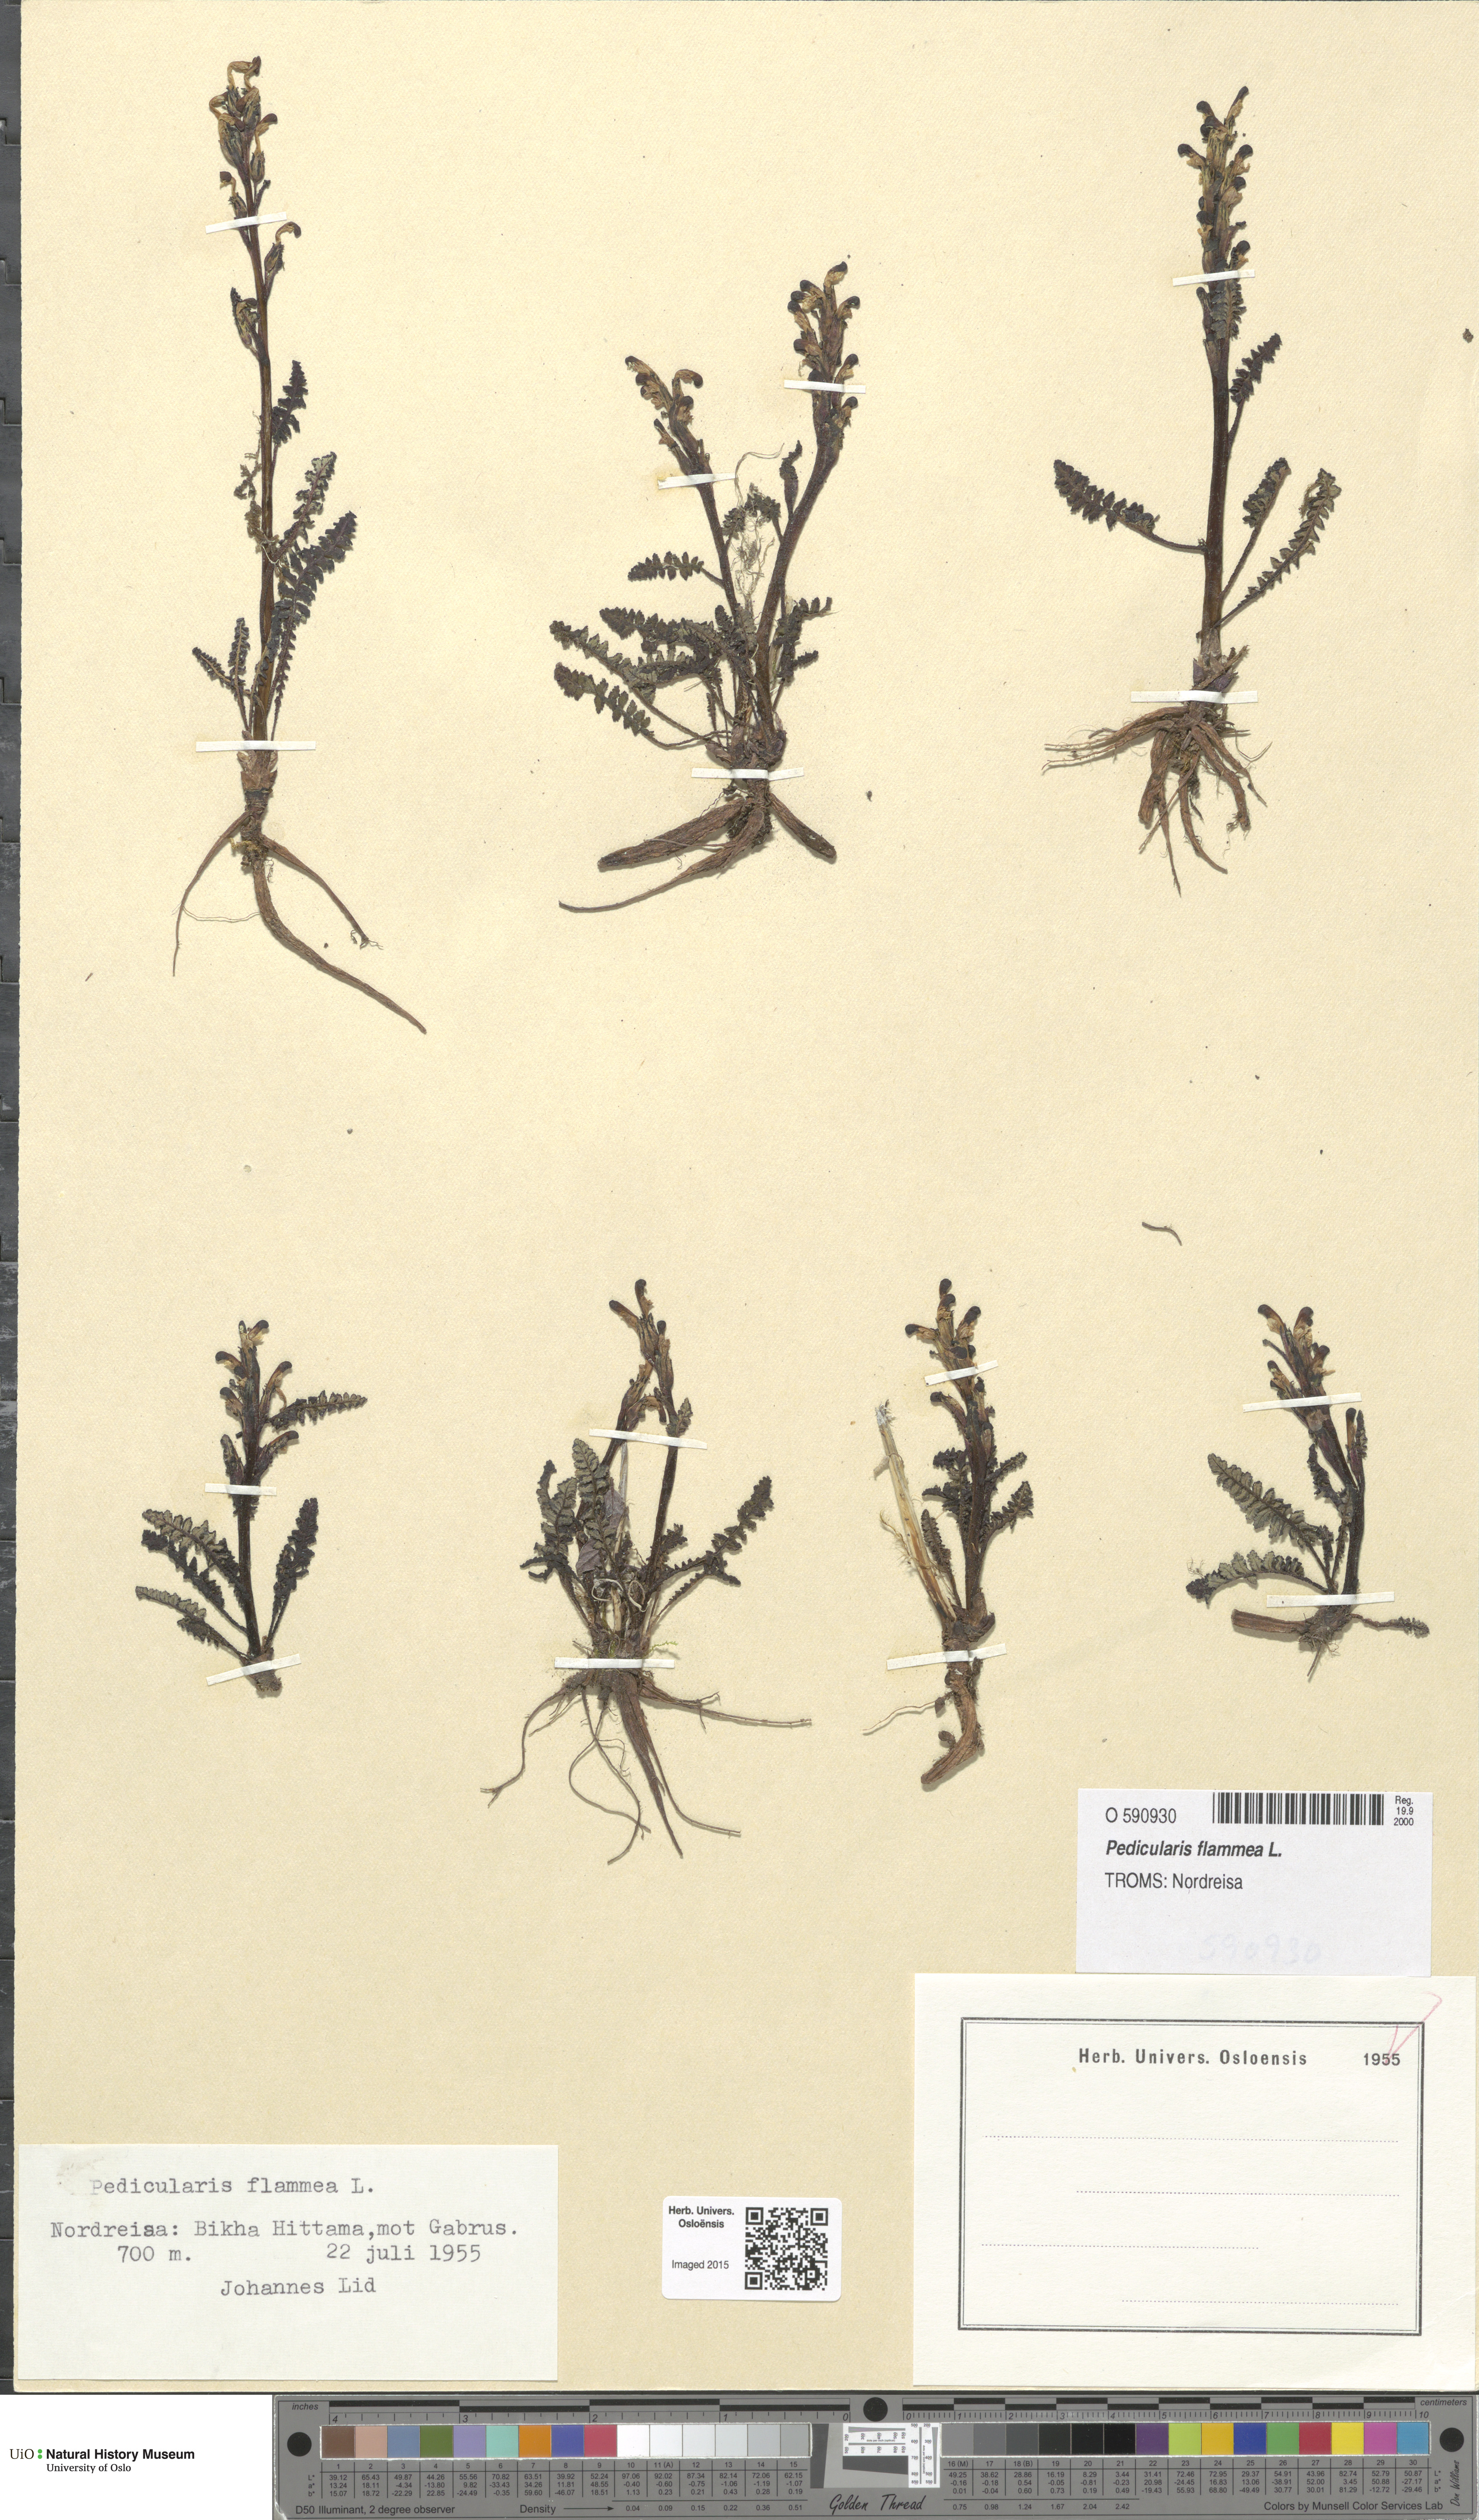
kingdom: Plantae
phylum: Tracheophyta
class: Magnoliopsida
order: Lamiales
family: Orobanchaceae
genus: Pedicularis
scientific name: Pedicularis flammea
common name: Flame-coloured lousewort
